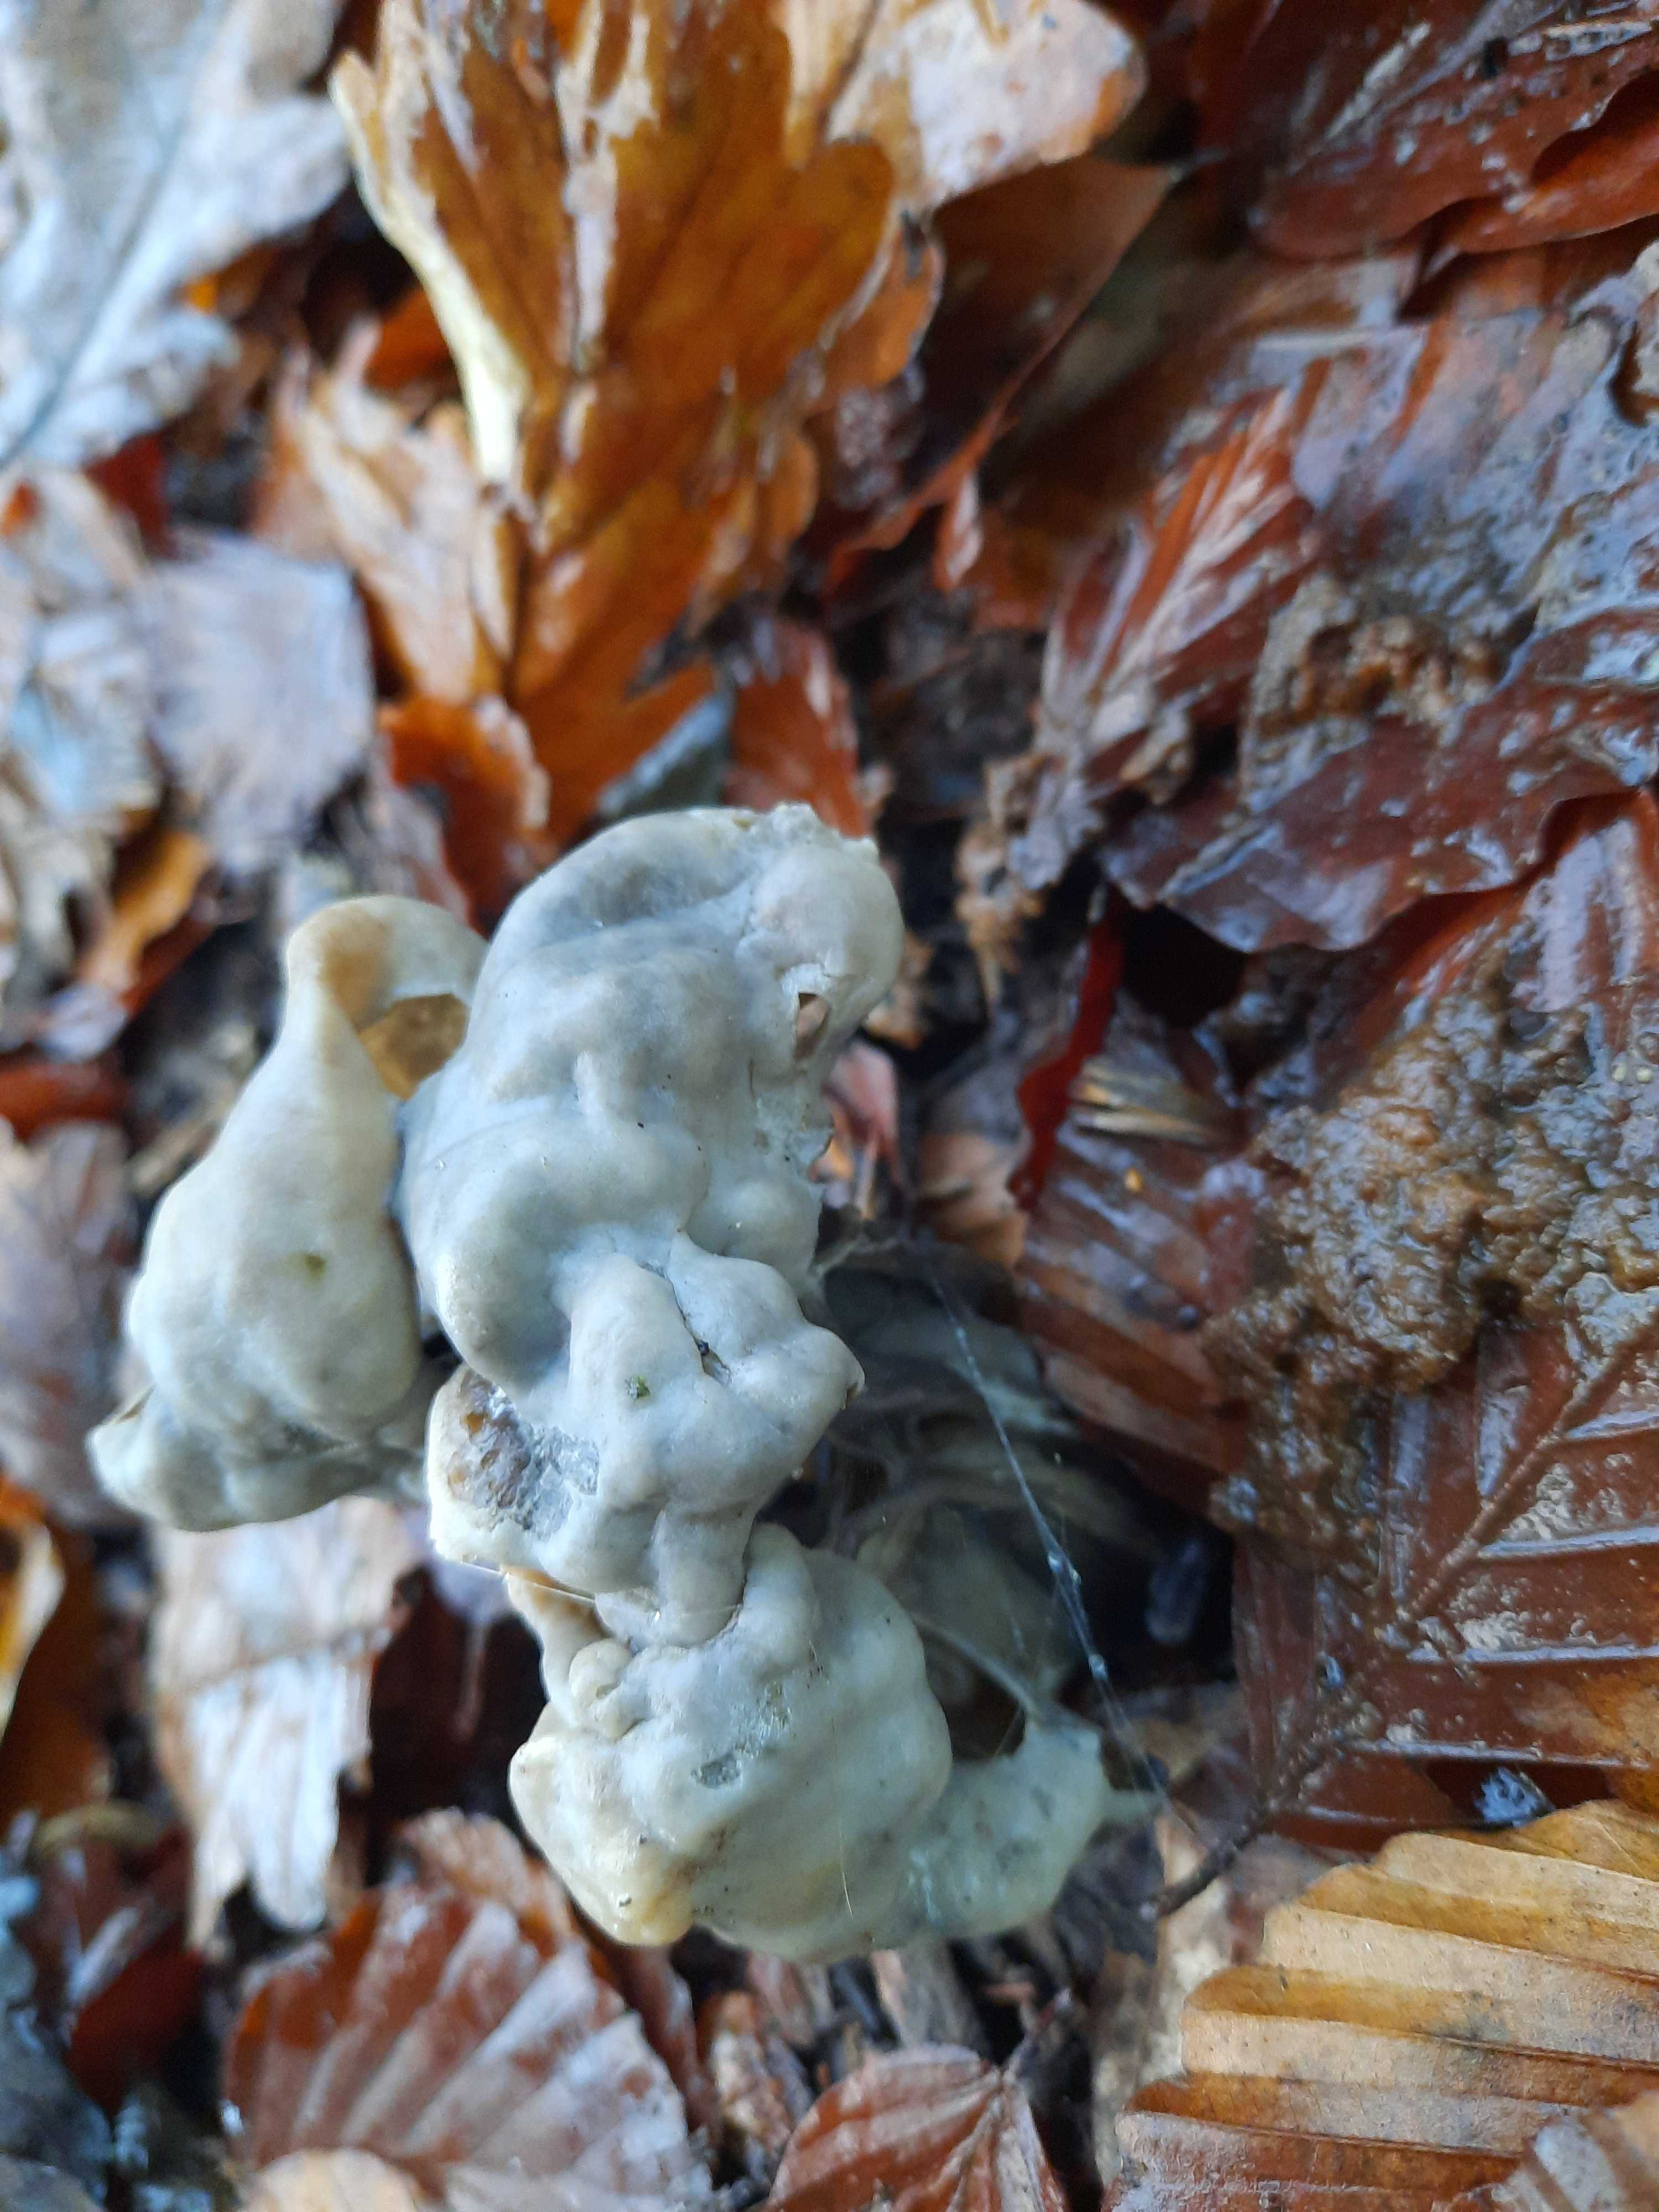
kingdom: Fungi
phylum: Ascomycota
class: Pezizomycetes
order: Pezizales
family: Helvellaceae
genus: Helvella
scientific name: Helvella lacunosa
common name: grubet foldhat
